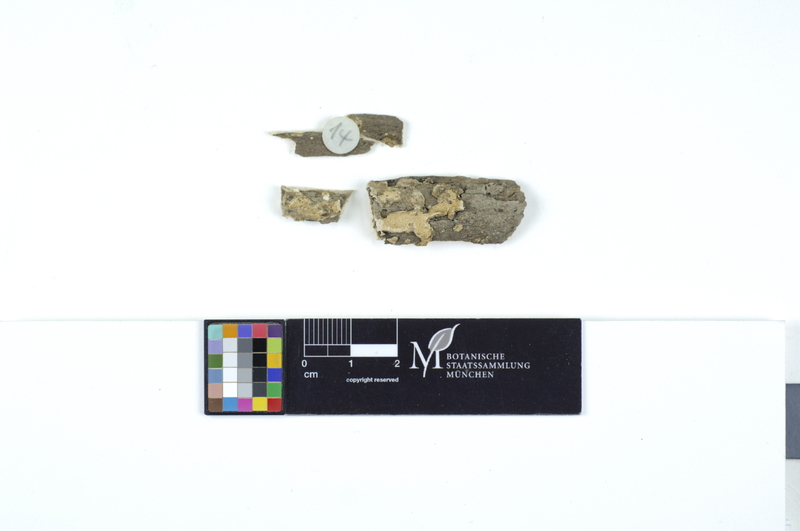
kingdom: Plantae
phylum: Tracheophyta
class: Magnoliopsida
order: Fagales
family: Fagaceae
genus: Quercus
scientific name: Quercus
